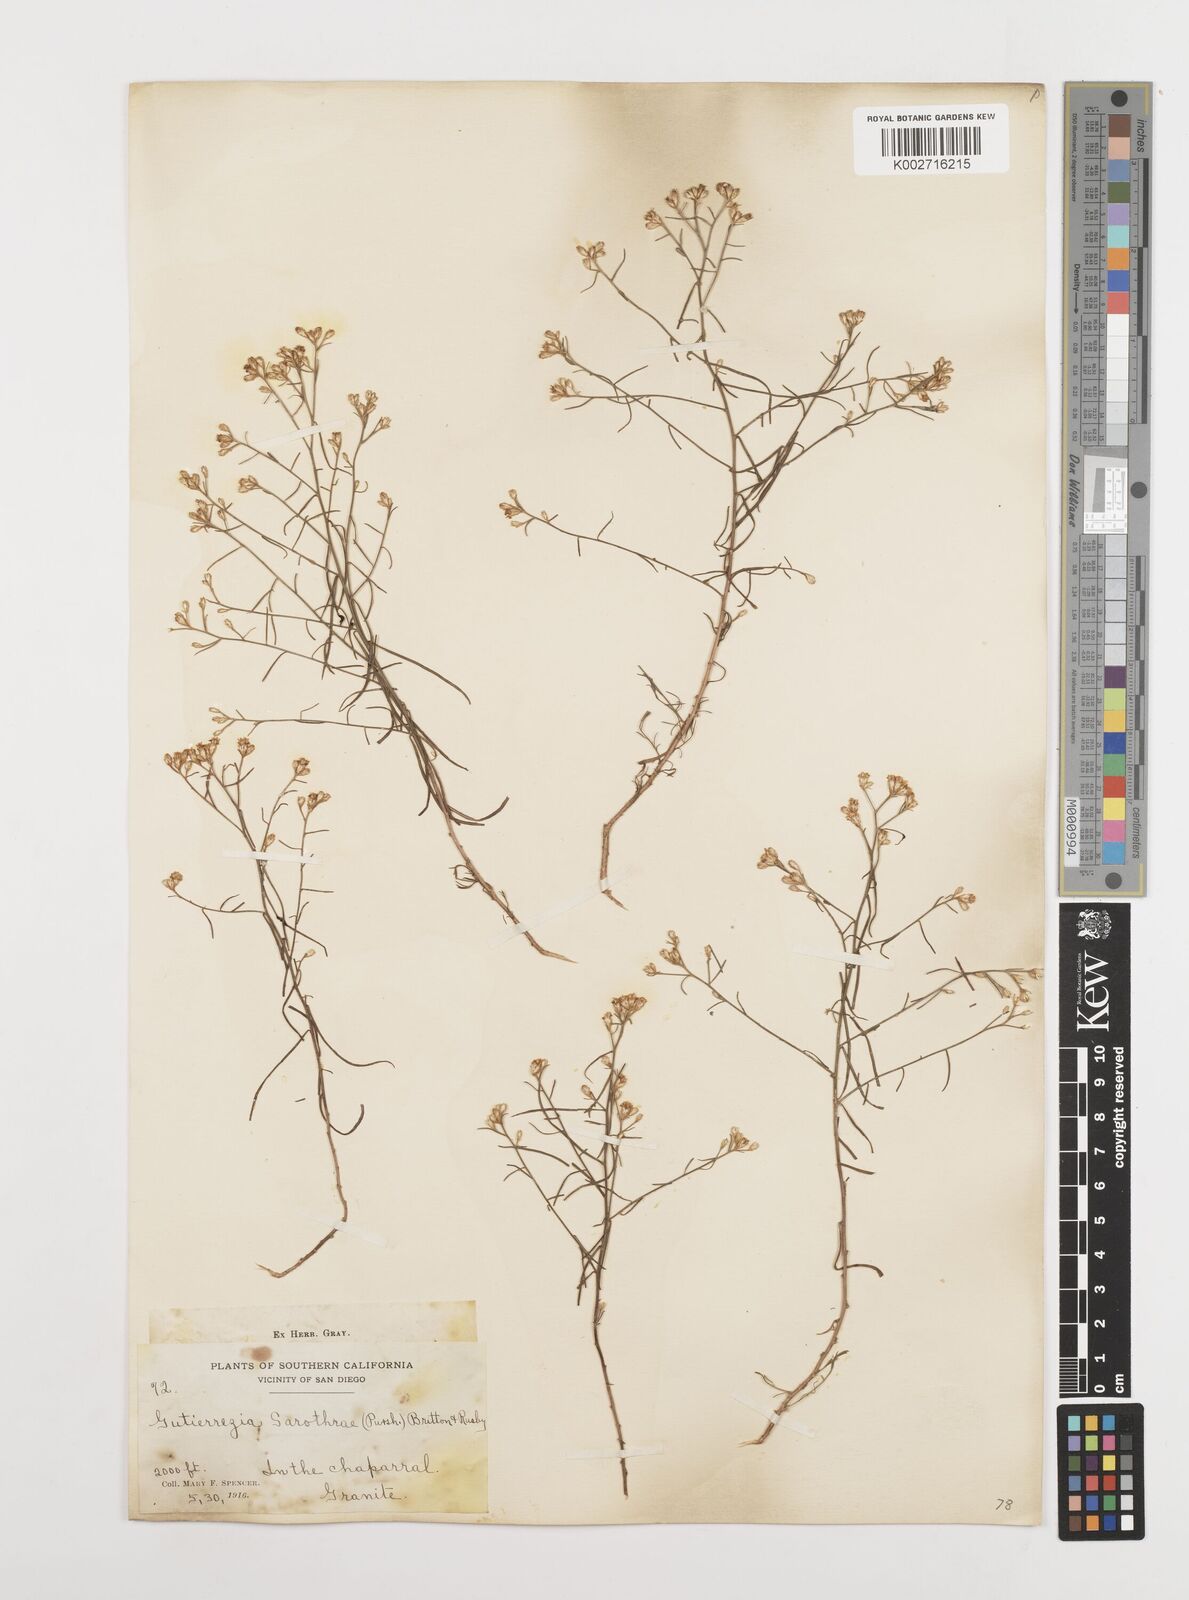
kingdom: Plantae
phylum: Tracheophyta
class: Magnoliopsida
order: Asterales
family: Asteraceae
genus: Gutierrezia
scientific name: Gutierrezia sarothrae
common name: Broom snakeweed
